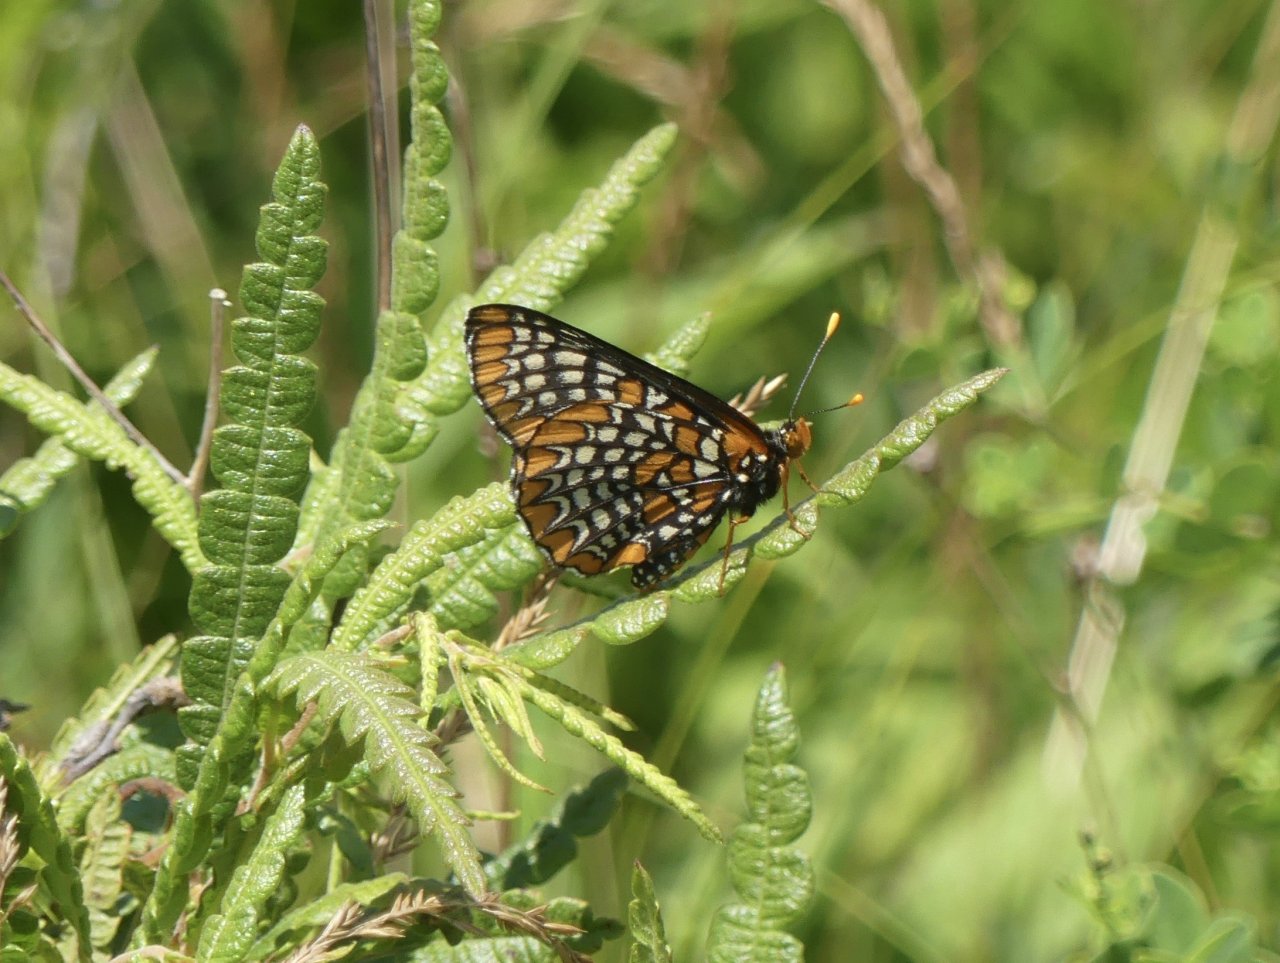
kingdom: Animalia
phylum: Arthropoda
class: Insecta
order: Lepidoptera
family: Nymphalidae
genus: Euphydryas
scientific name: Euphydryas phaeton
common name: Baltimore Checkerspot
